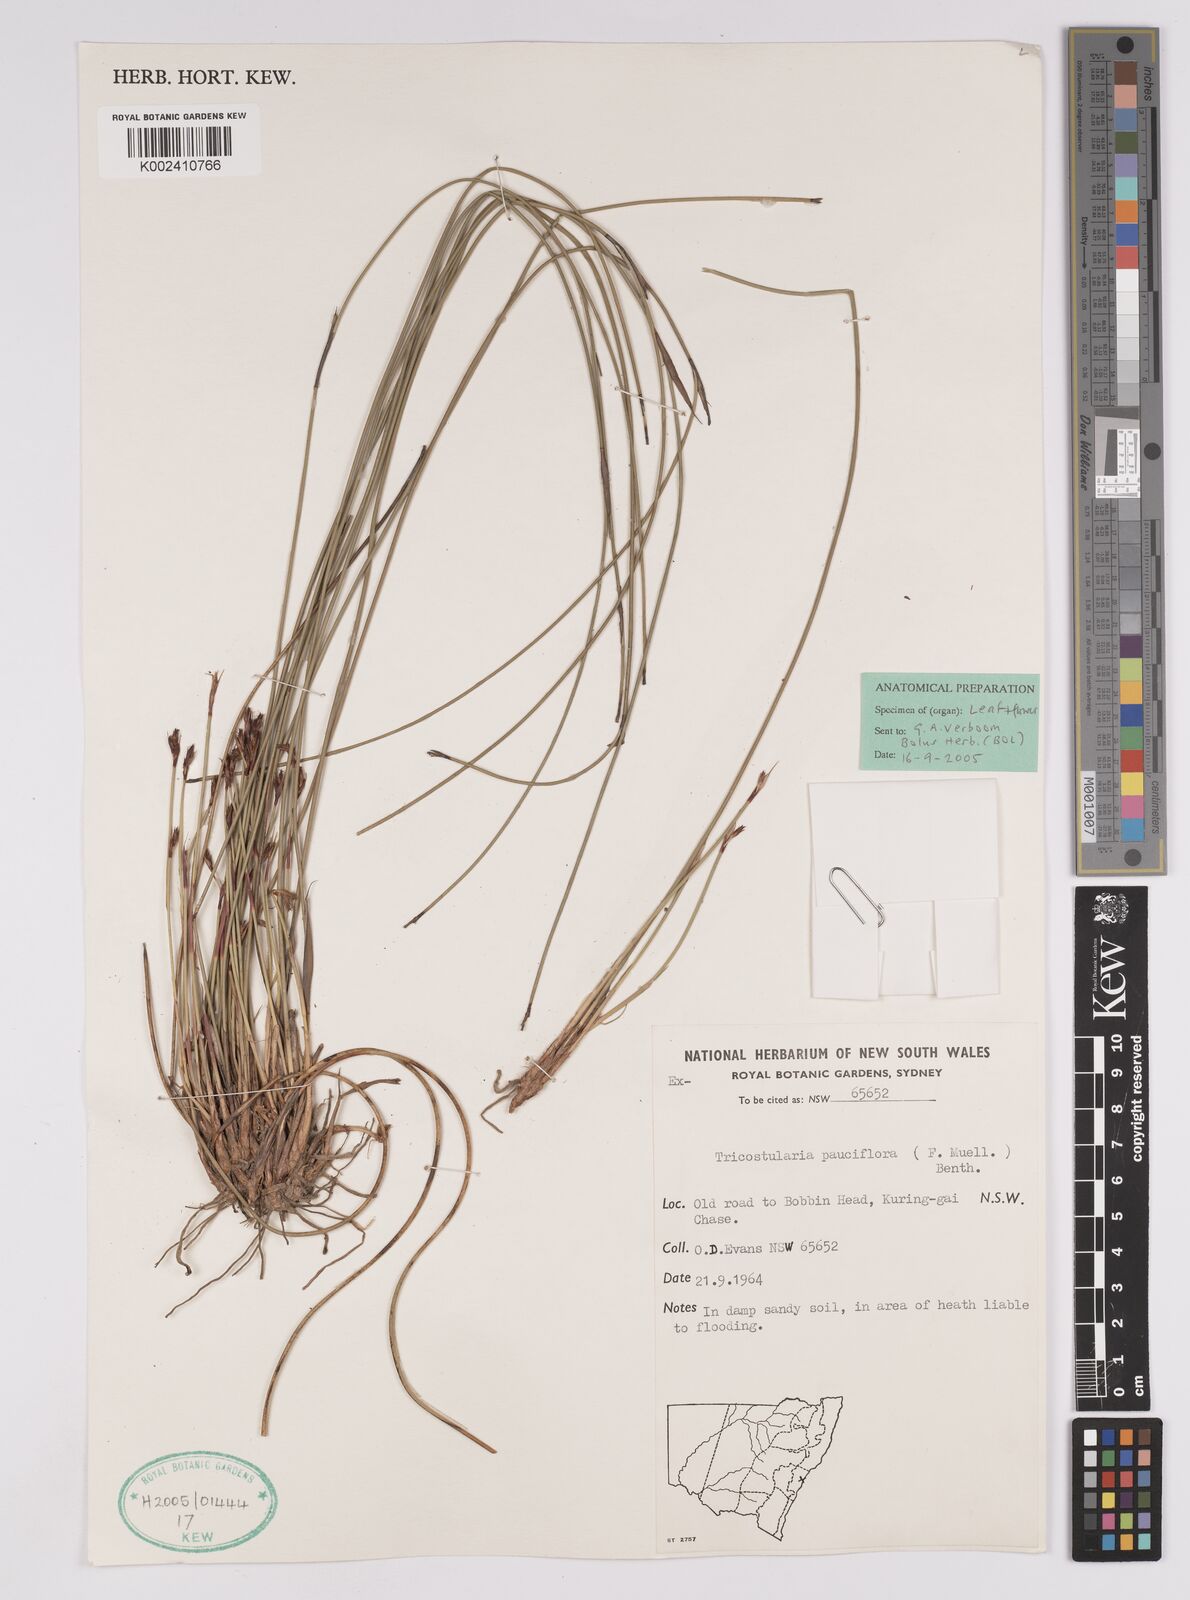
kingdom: Plantae
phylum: Tracheophyta
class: Liliopsida
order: Poales
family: Cyperaceae
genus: Tricostularia
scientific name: Tricostularia pauciflora
